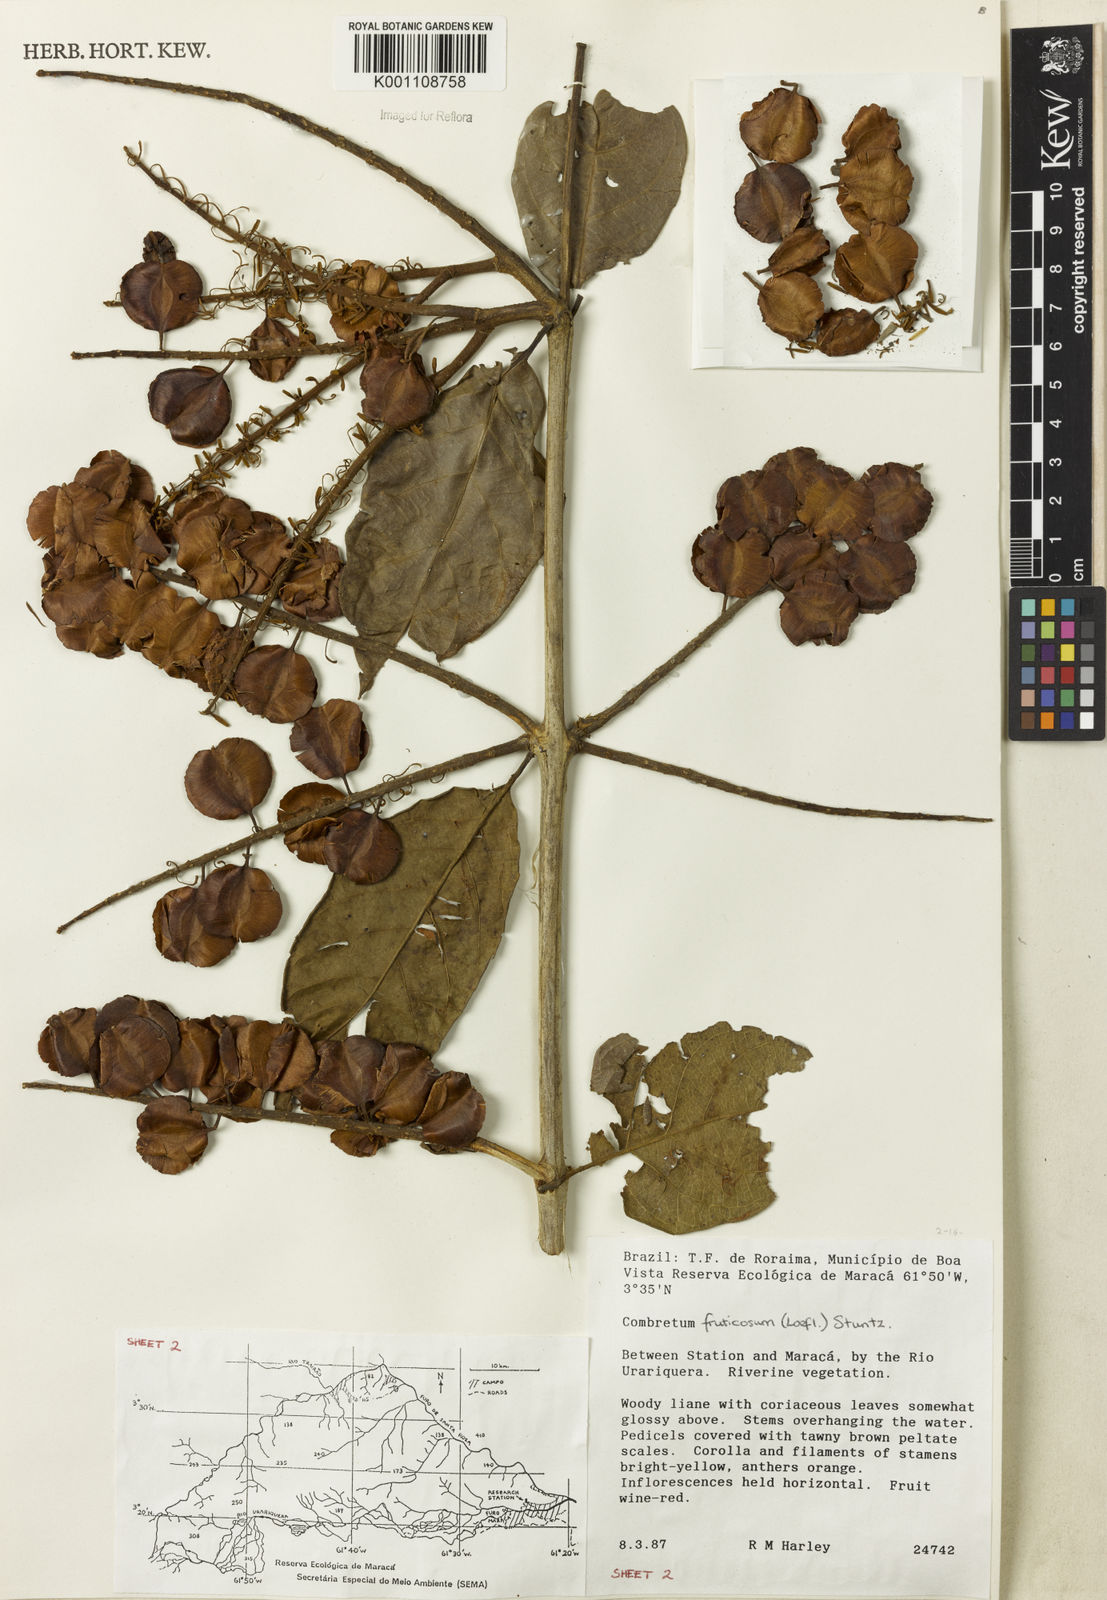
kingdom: Plantae
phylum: Tracheophyta
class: Magnoliopsida
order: Myrtales
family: Combretaceae
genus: Combretum
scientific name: Combretum fruticosum
